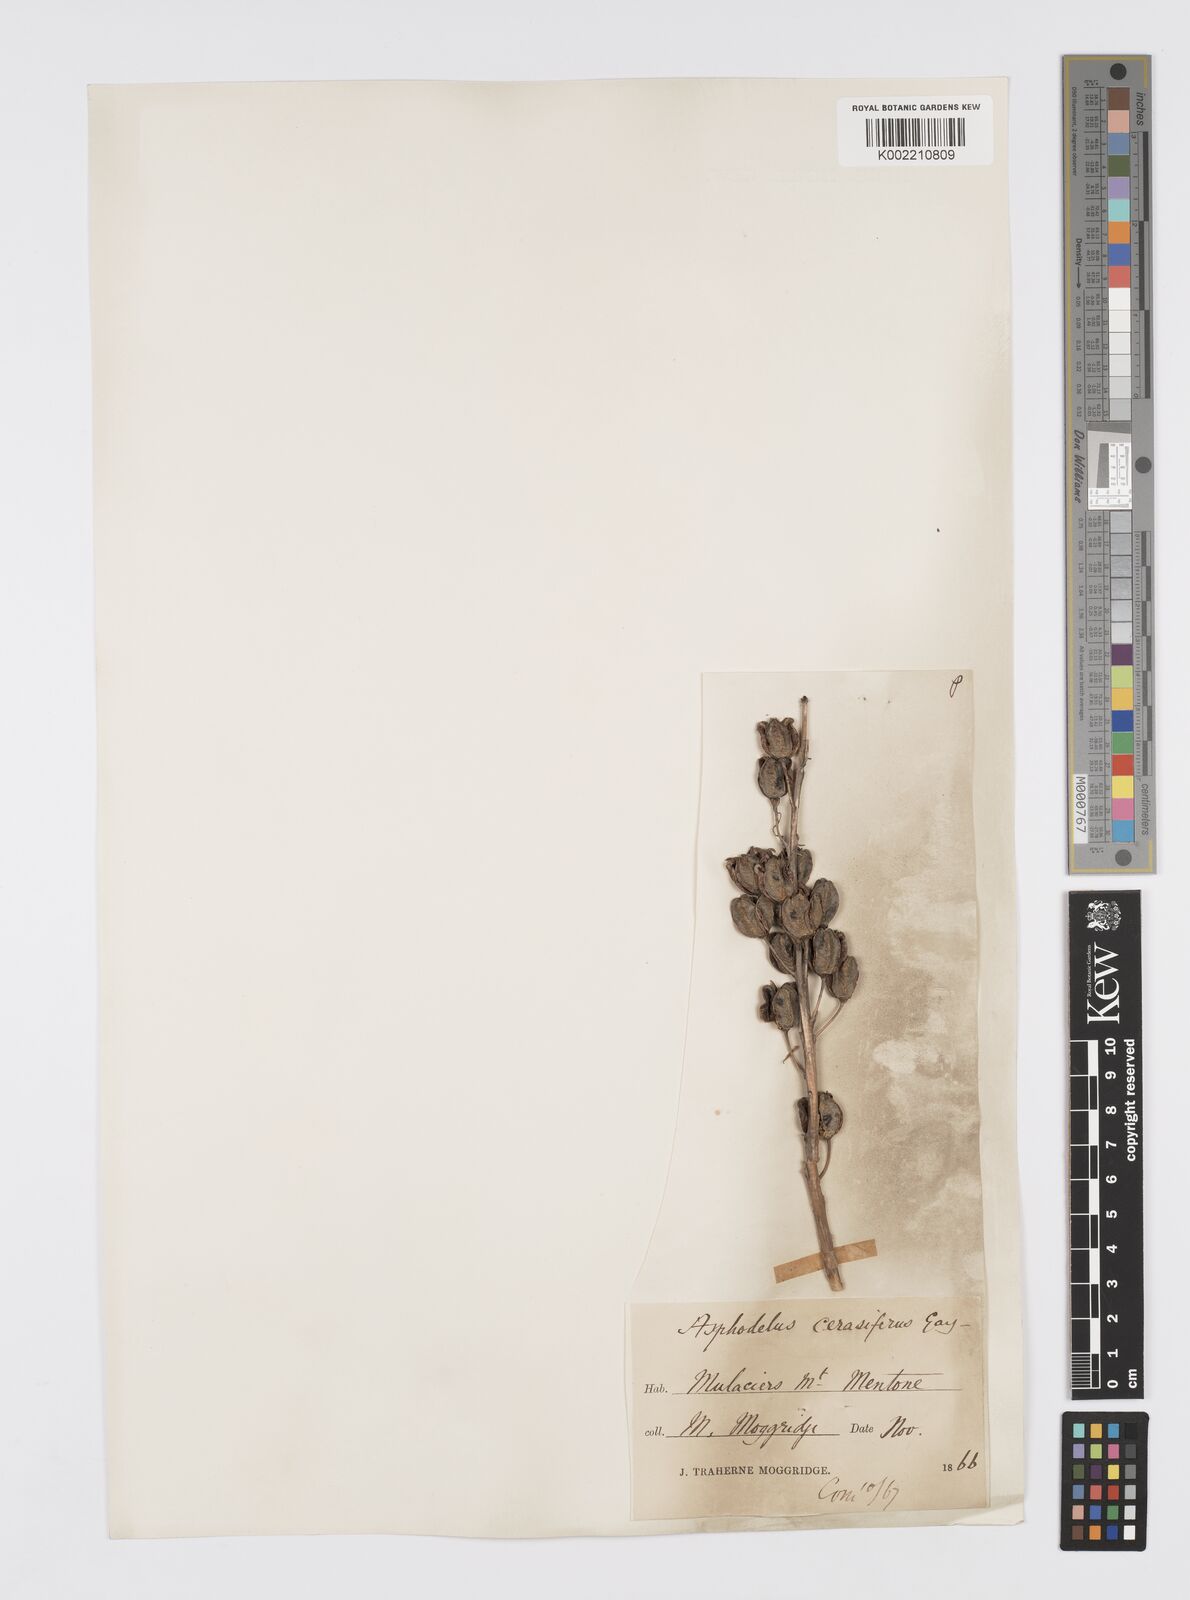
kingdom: Plantae
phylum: Tracheophyta
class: Liliopsida
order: Asparagales
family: Asphodelaceae
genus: Asphodelus
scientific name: Asphodelus cerasifer
